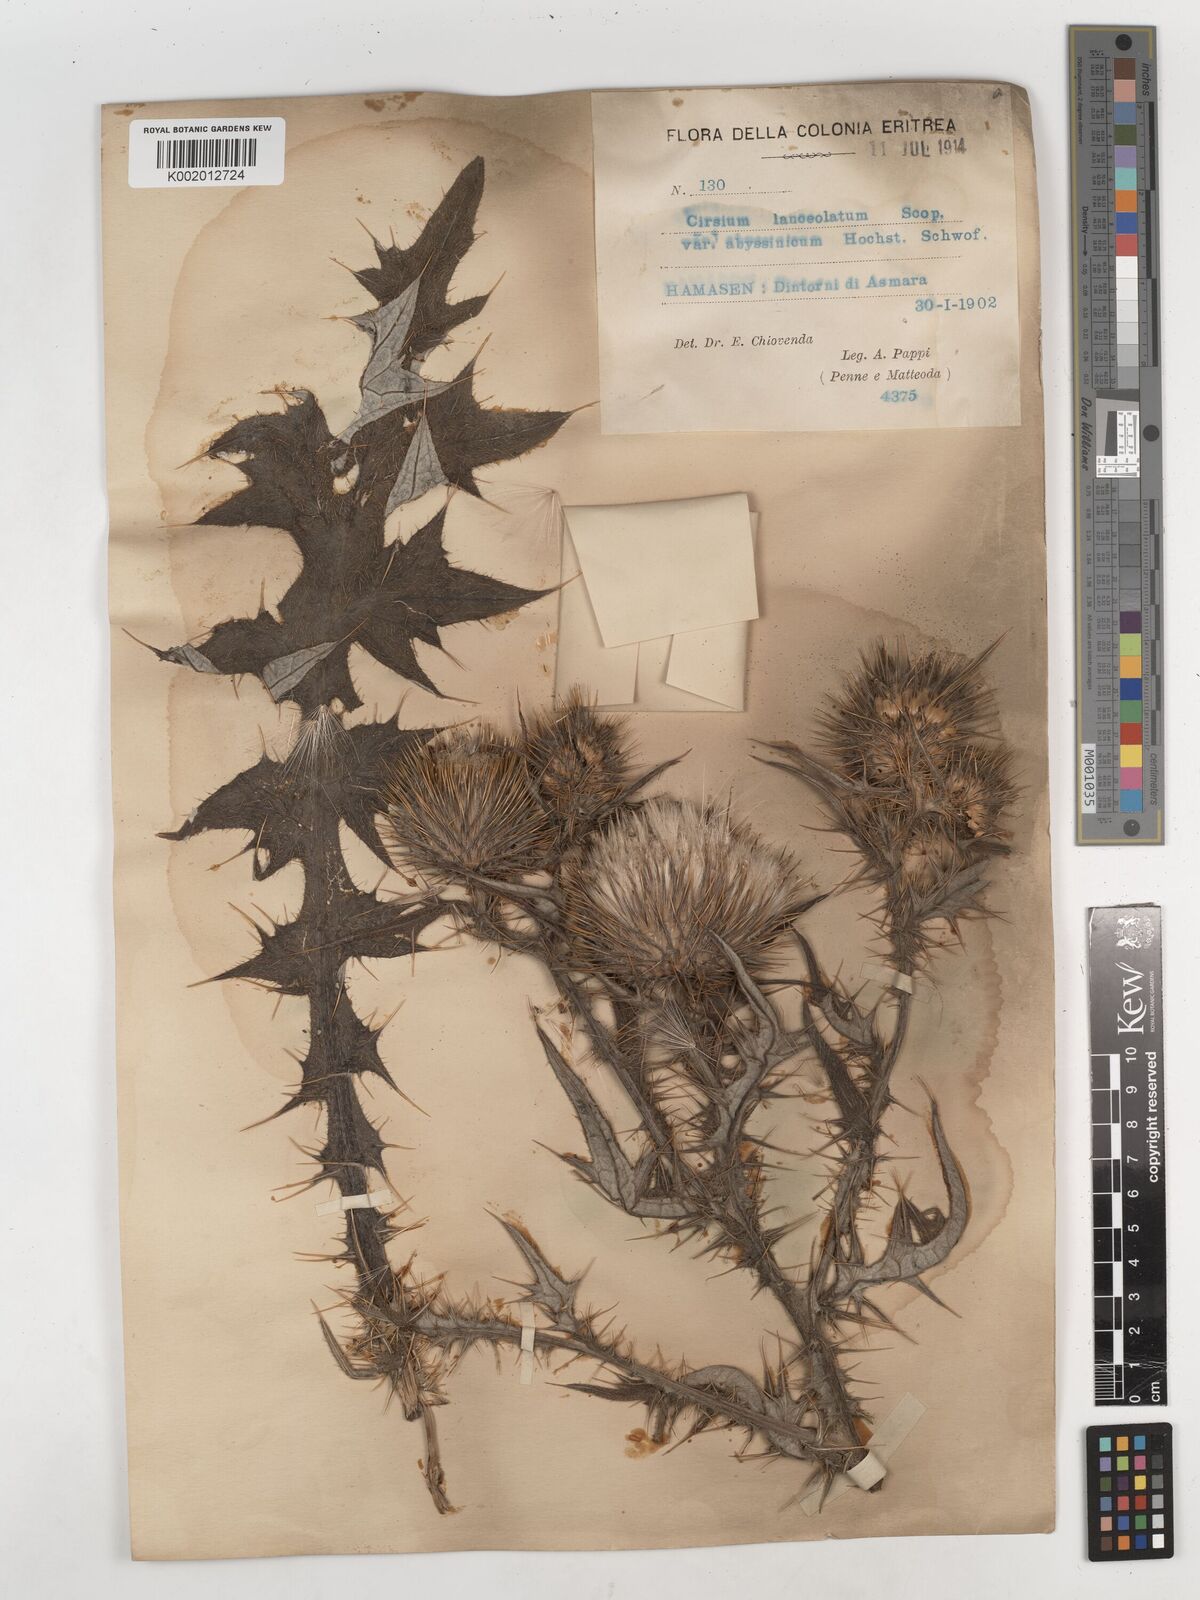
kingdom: Plantae
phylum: Tracheophyta
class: Magnoliopsida
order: Asterales
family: Asteraceae
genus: Cirsium
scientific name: Cirsium
